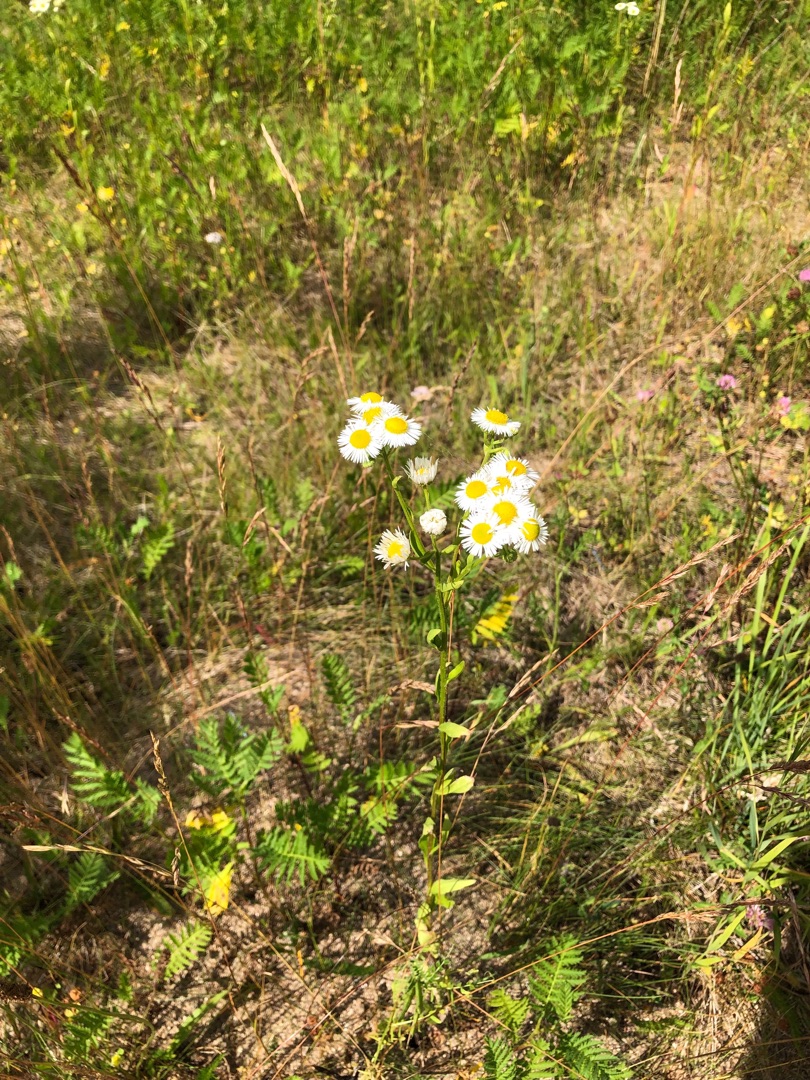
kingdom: Plantae
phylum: Tracheophyta
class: Magnoliopsida
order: Asterales
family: Asteraceae
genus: Erigeron
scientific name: Erigeron annuus
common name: Smalstråle
